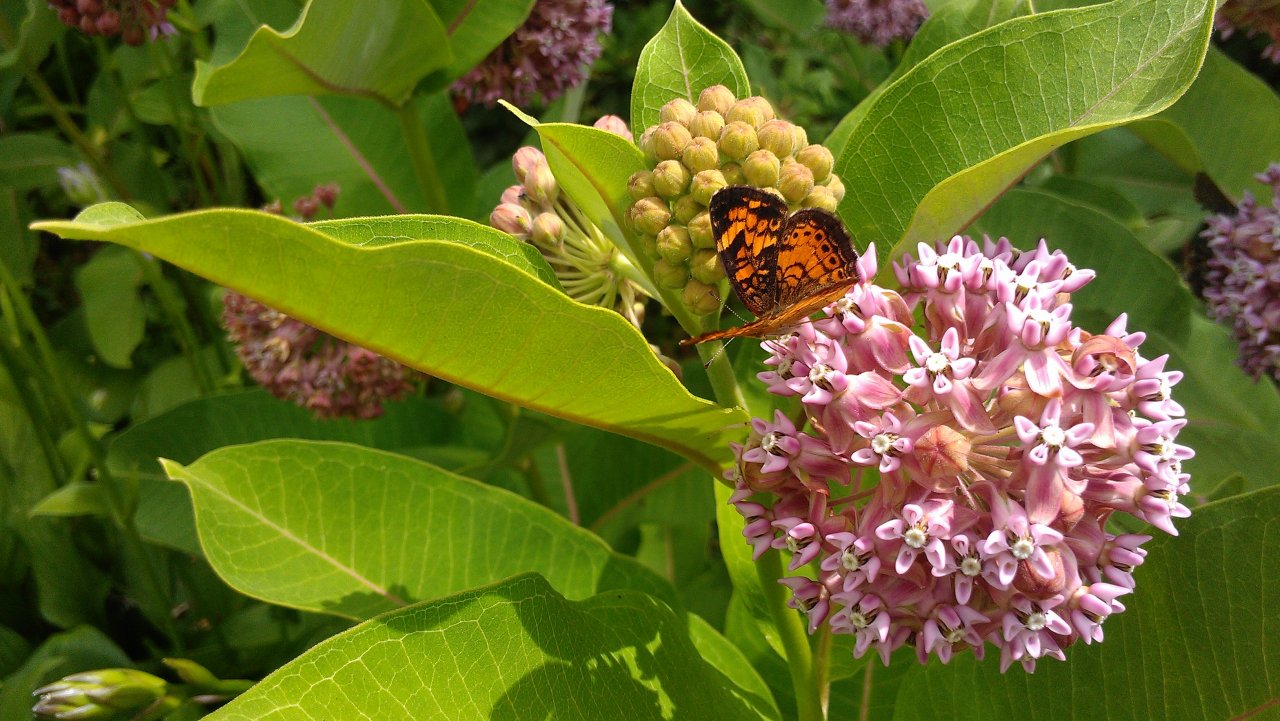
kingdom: Animalia
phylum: Arthropoda
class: Insecta
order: Lepidoptera
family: Nymphalidae
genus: Phyciodes
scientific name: Phyciodes tharos
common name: Northern Crescent
